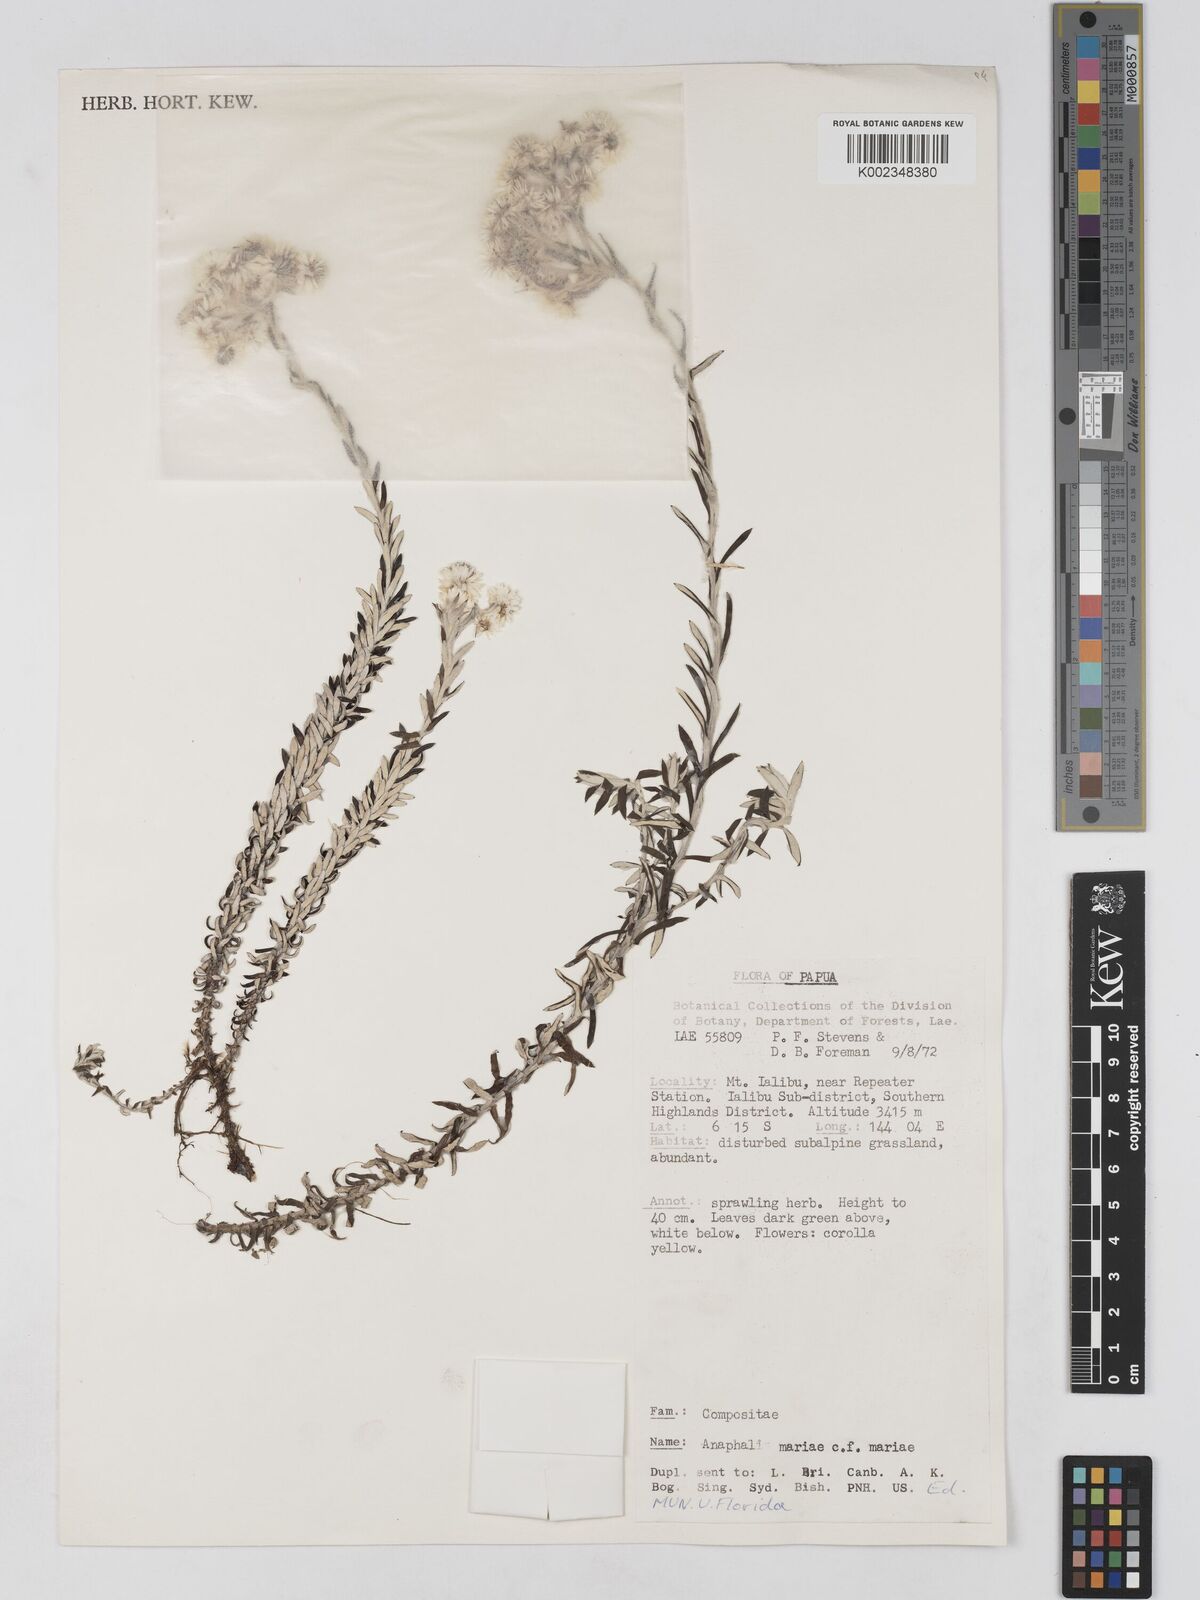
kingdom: Plantae
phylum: Tracheophyta
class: Magnoliopsida
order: Asterales
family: Asteraceae
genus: Anaphalioides
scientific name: Anaphalioides mariae
